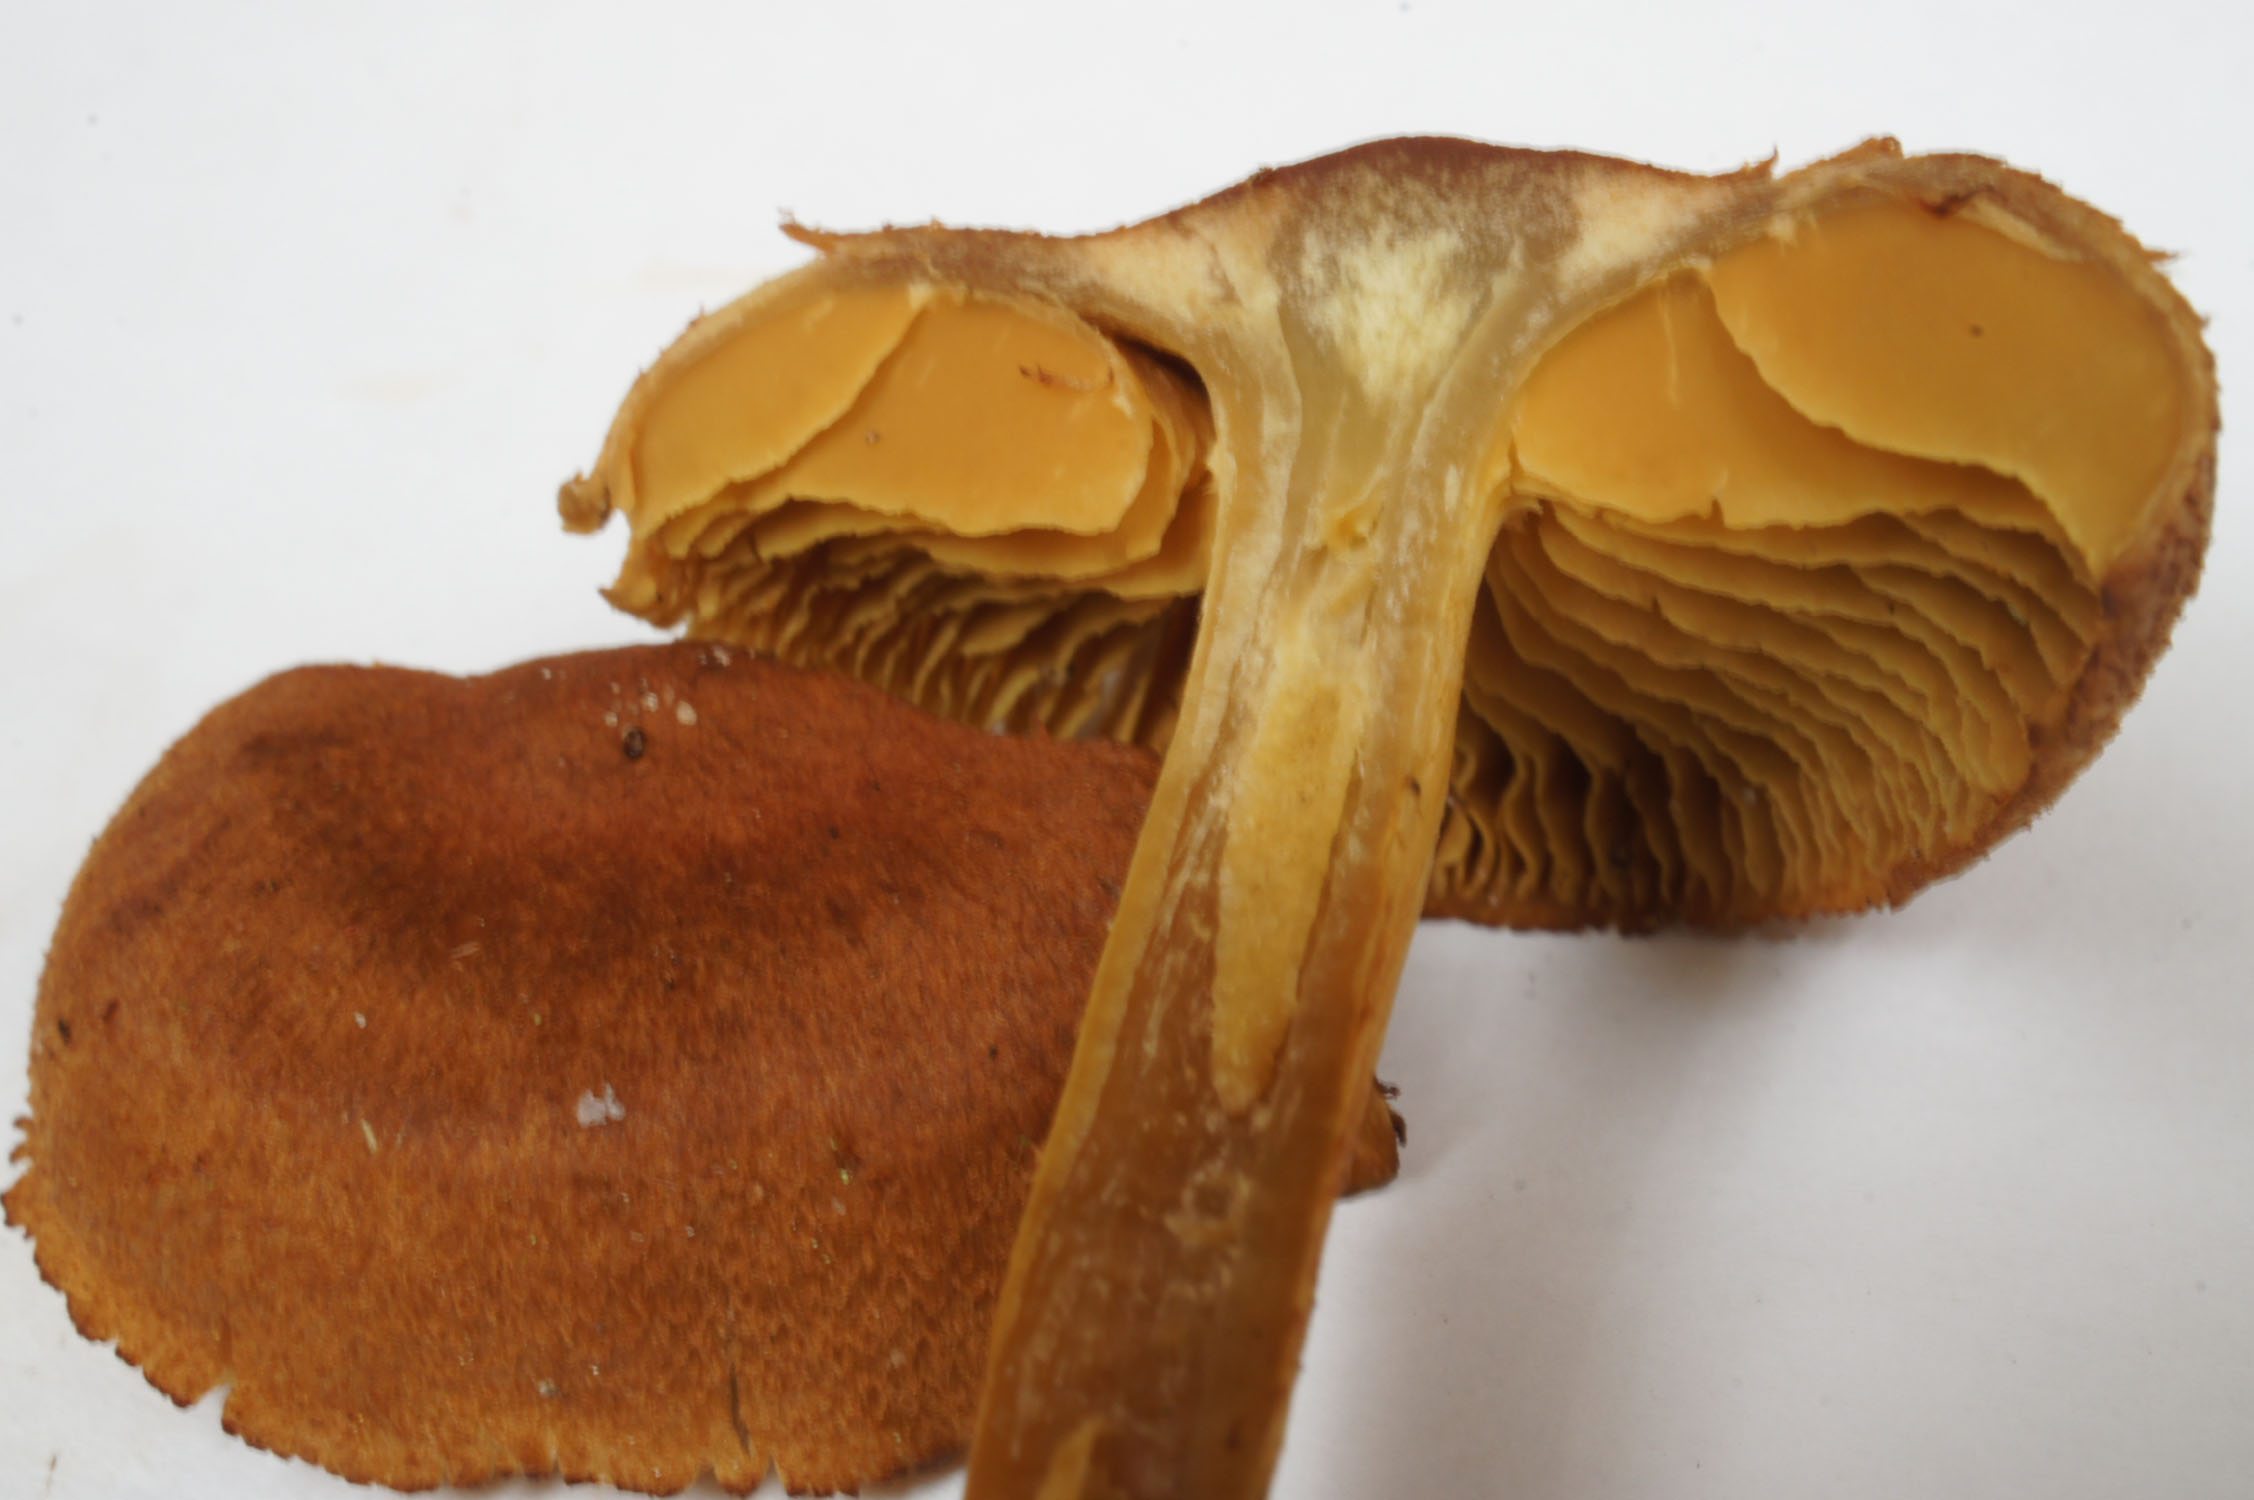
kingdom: Fungi
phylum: Basidiomycota
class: Agaricomycetes
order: Agaricales
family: Cortinariaceae
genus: Cortinarius
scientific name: Cortinarius bataillei
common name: orangefodet slørhat
